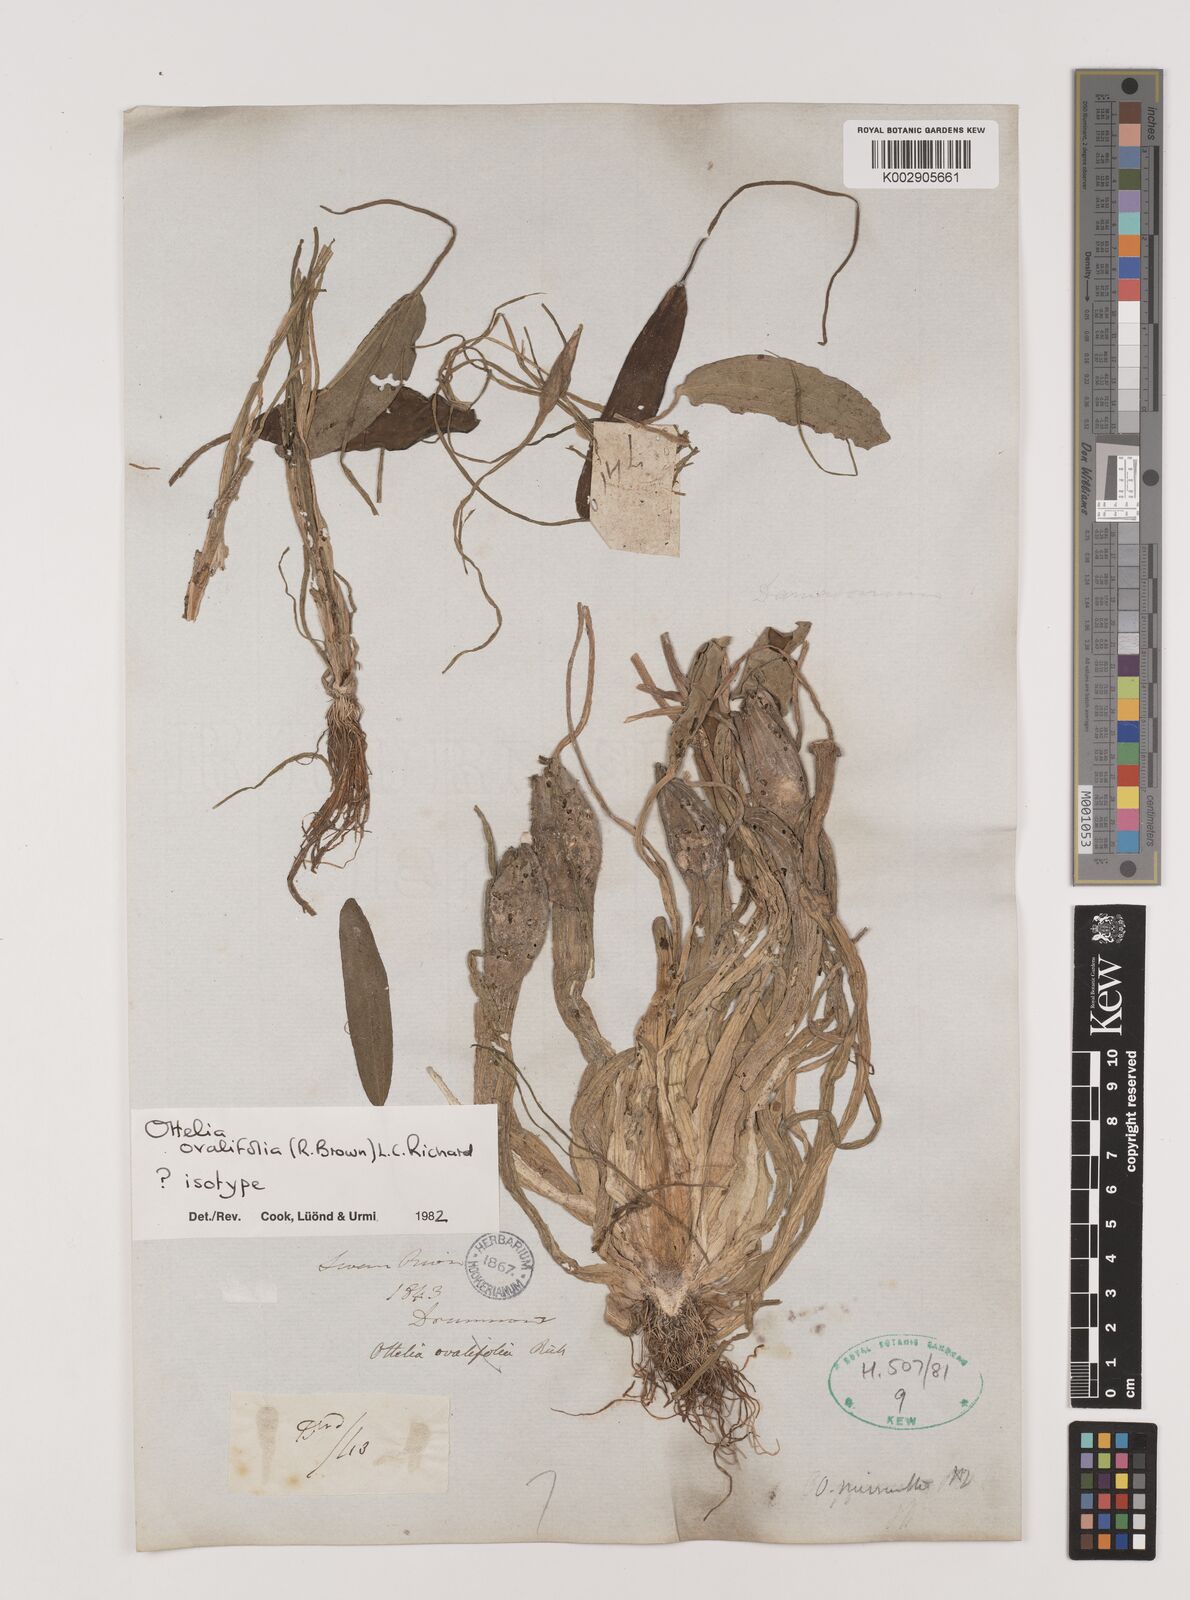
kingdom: Plantae
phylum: Tracheophyta
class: Liliopsida
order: Alismatales
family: Hydrocharitaceae
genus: Ottelia
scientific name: Ottelia ovalifolia
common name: Swamp-lily
